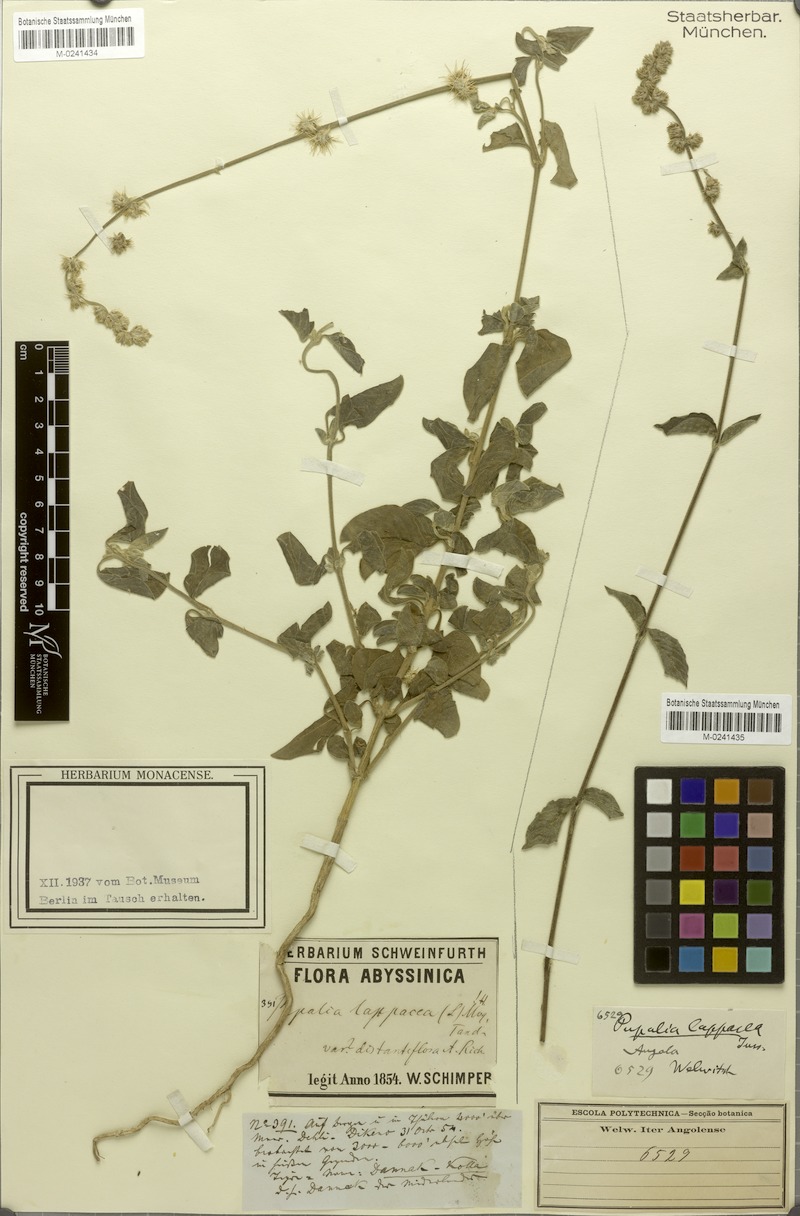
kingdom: Plantae
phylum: Tracheophyta
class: Magnoliopsida
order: Caryophyllales
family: Amaranthaceae
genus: Pupalia
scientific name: Pupalia lappacea
